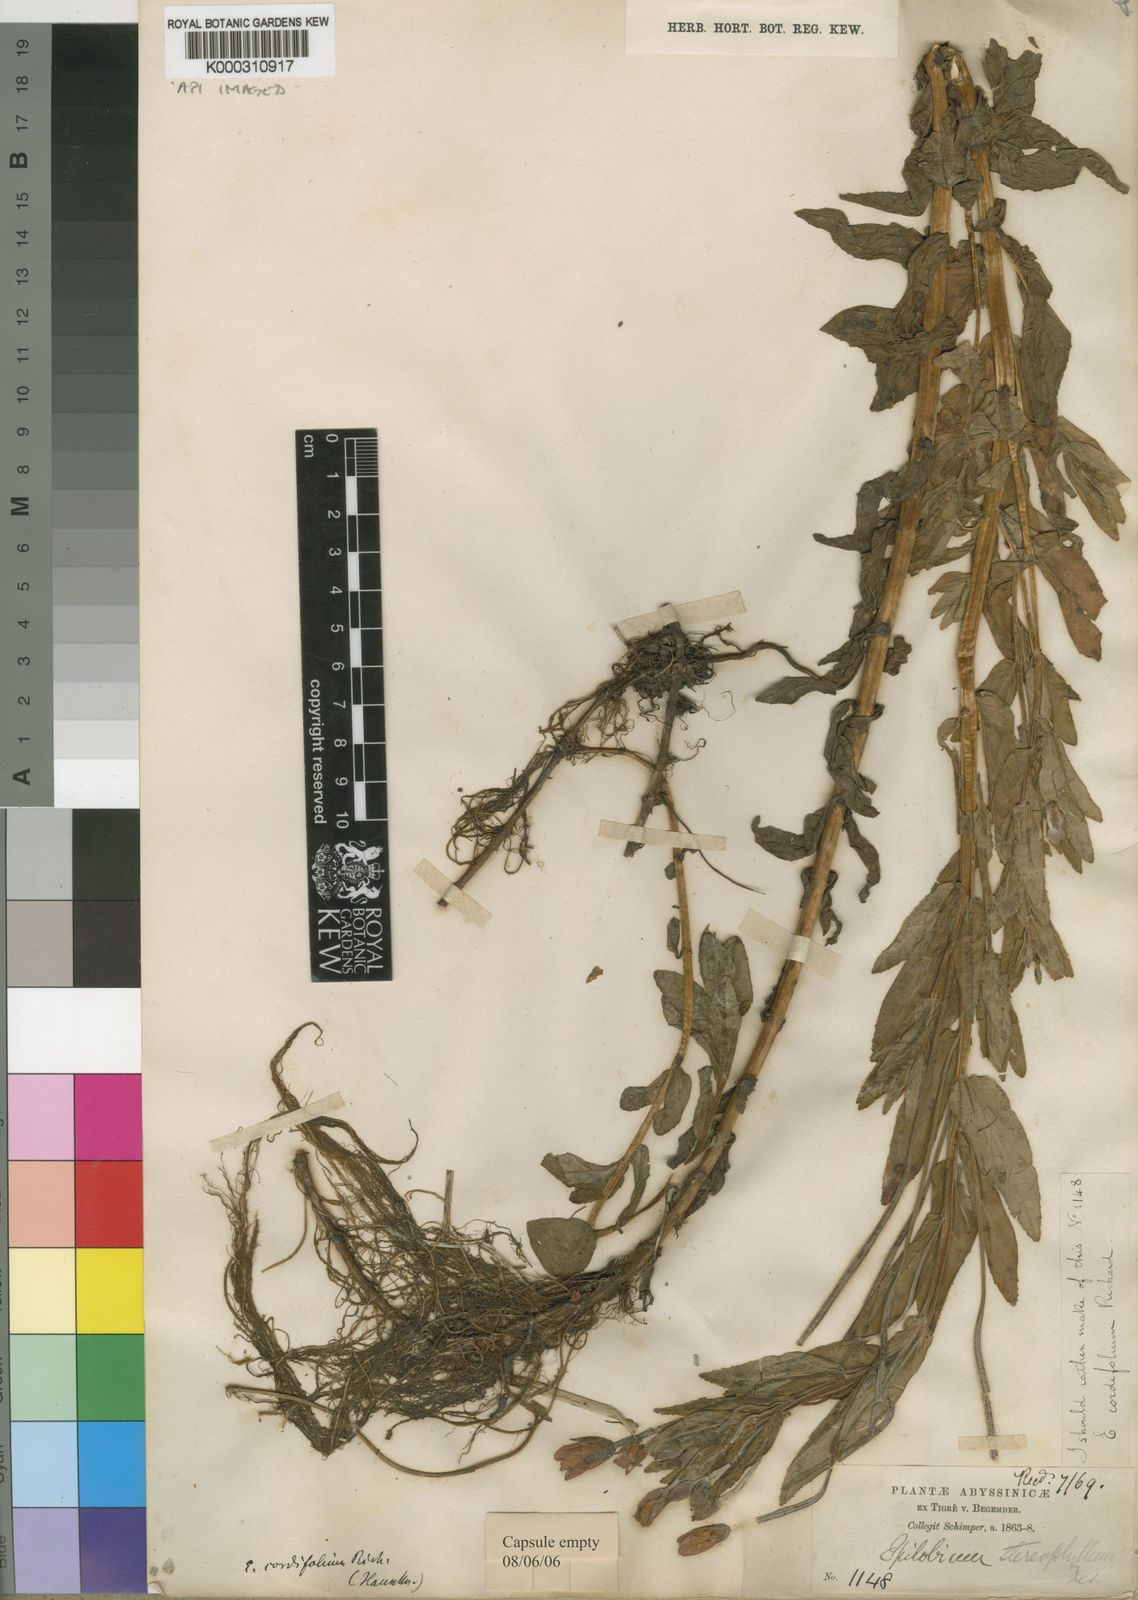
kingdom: Plantae
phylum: Tracheophyta
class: Magnoliopsida
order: Myrtales
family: Onagraceae
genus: Epilobium
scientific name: Epilobium stereophyllum
